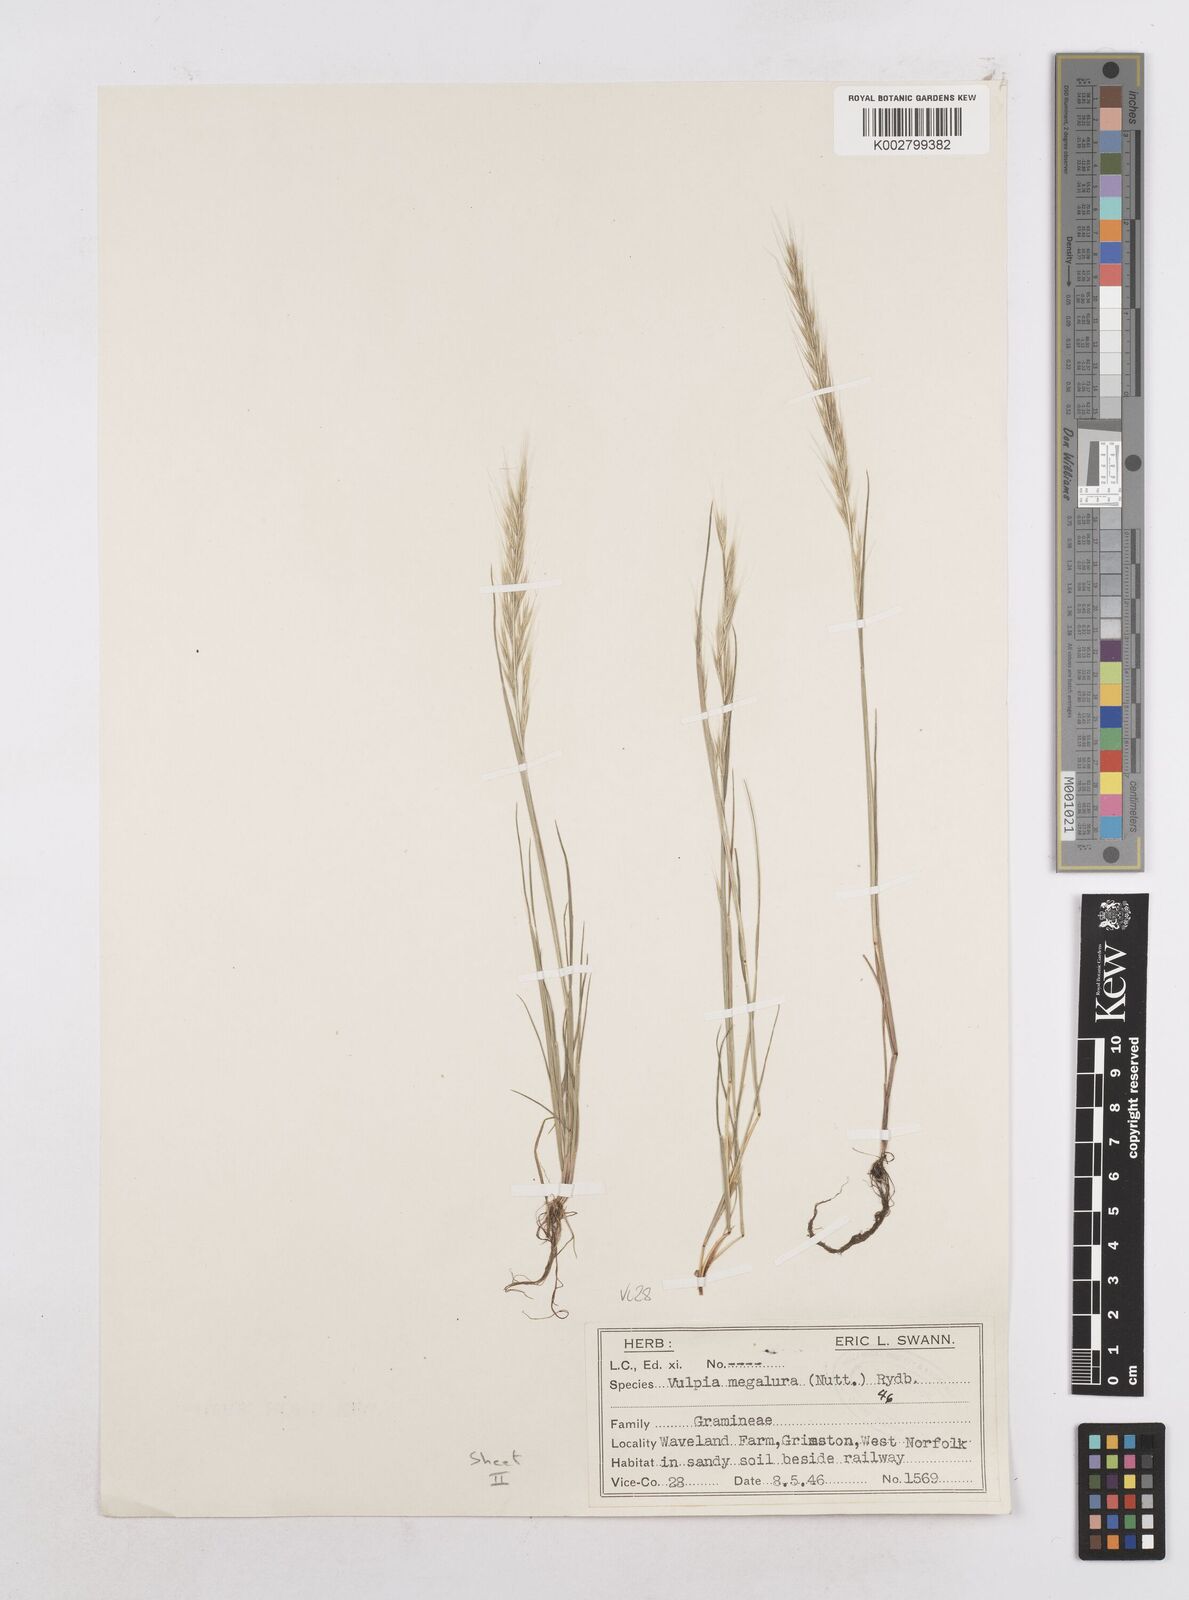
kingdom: Plantae
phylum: Tracheophyta
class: Liliopsida
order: Poales
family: Poaceae
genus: Festuca
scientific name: Festuca myuros
